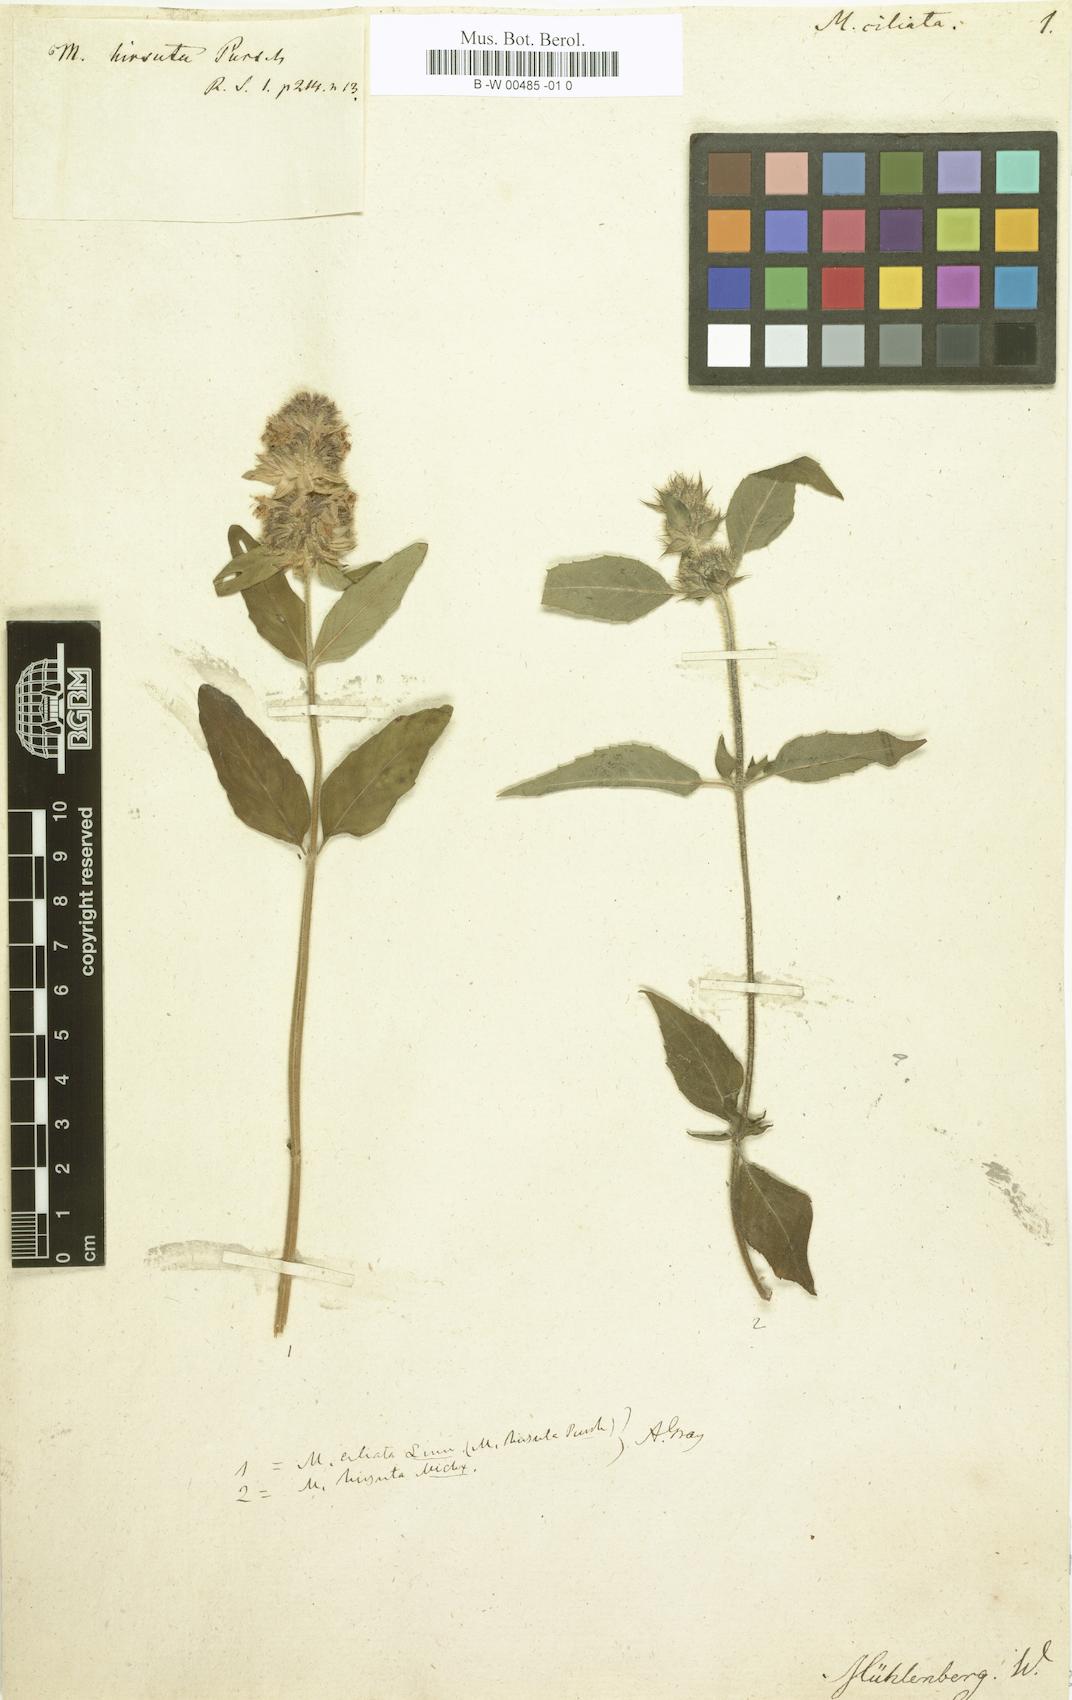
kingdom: Plantae
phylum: Tracheophyta
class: Magnoliopsida
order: Lamiales
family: Lamiaceae
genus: Blephilia
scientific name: Blephilia ciliata
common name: Downy blephilia
